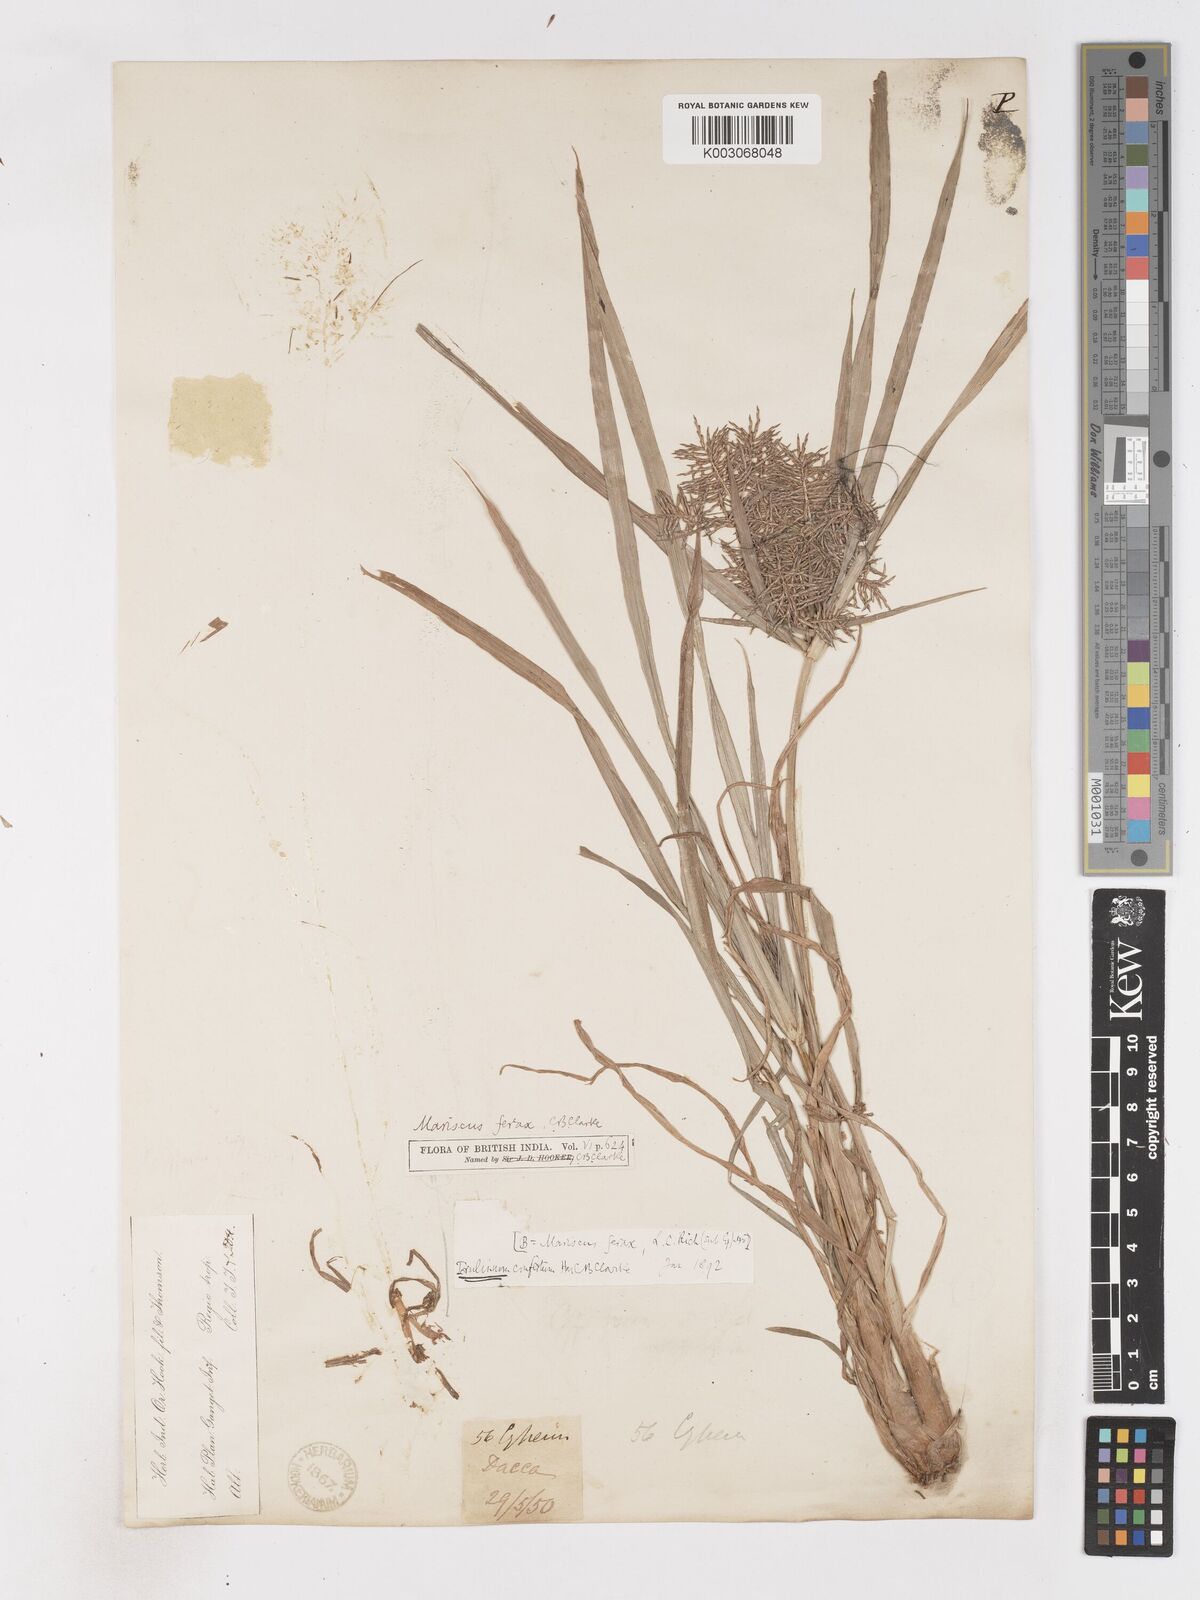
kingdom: Plantae
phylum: Tracheophyta
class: Liliopsida
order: Poales
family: Cyperaceae
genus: Cyperus
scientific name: Cyperus odoratus
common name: Fragrant flatsedge
